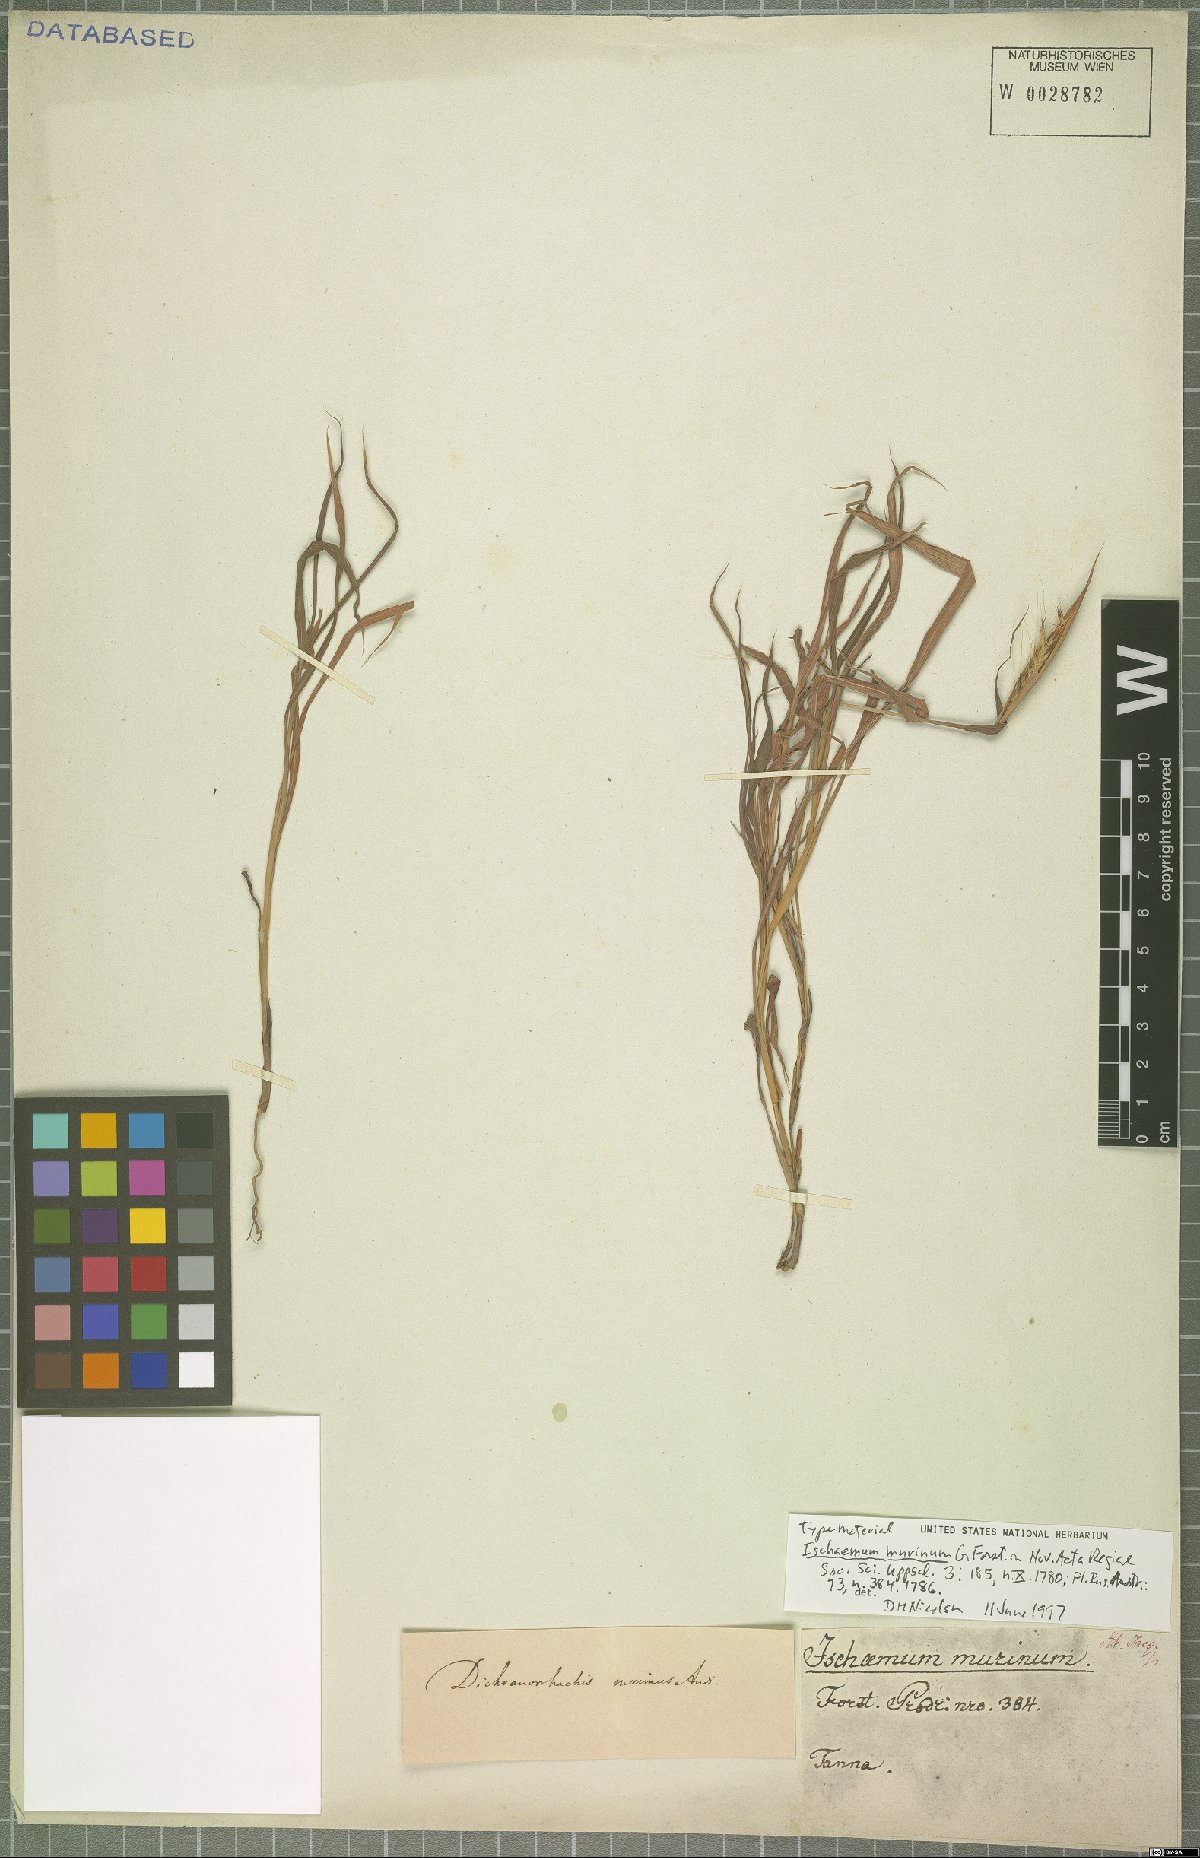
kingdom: Plantae
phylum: Tracheophyta
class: Liliopsida
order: Poales
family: Poaceae
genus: Ischaemum
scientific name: Ischaemum murinum
